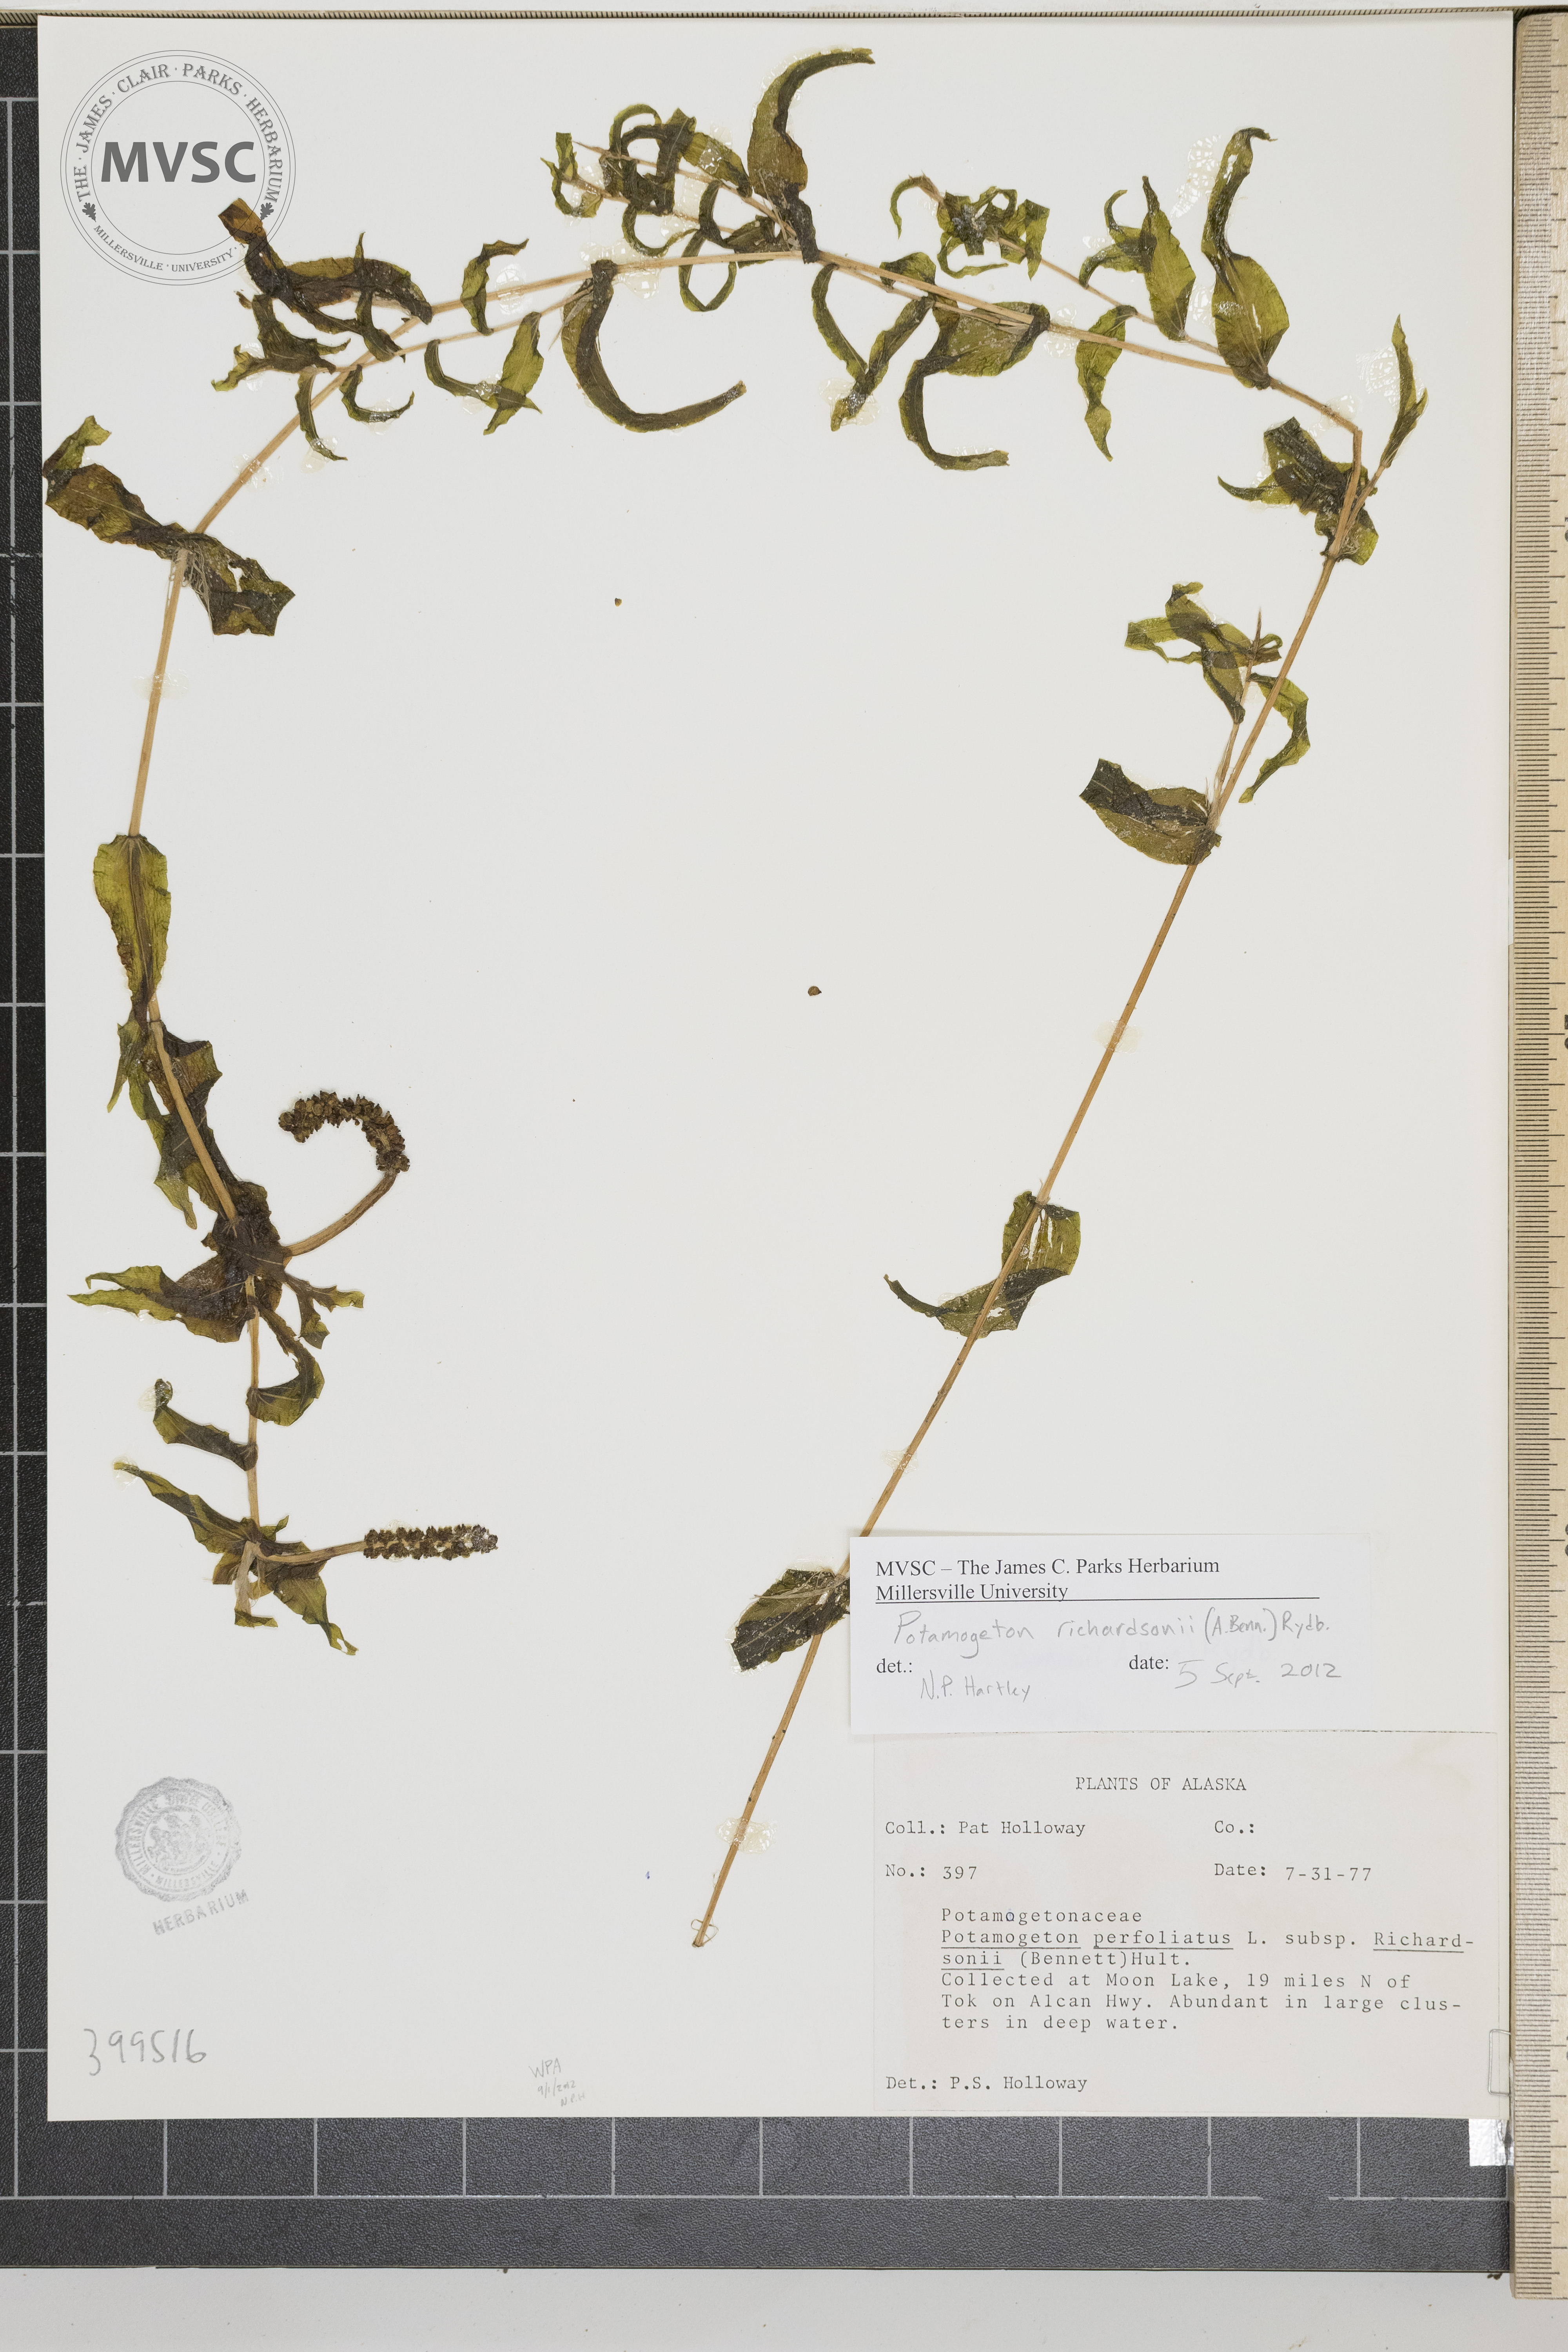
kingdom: Plantae
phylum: Tracheophyta
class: Liliopsida
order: Alismatales
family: Potamogetonaceae
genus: Potamogeton
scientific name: Potamogeton richardsonii
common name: Richardson's pondweed
